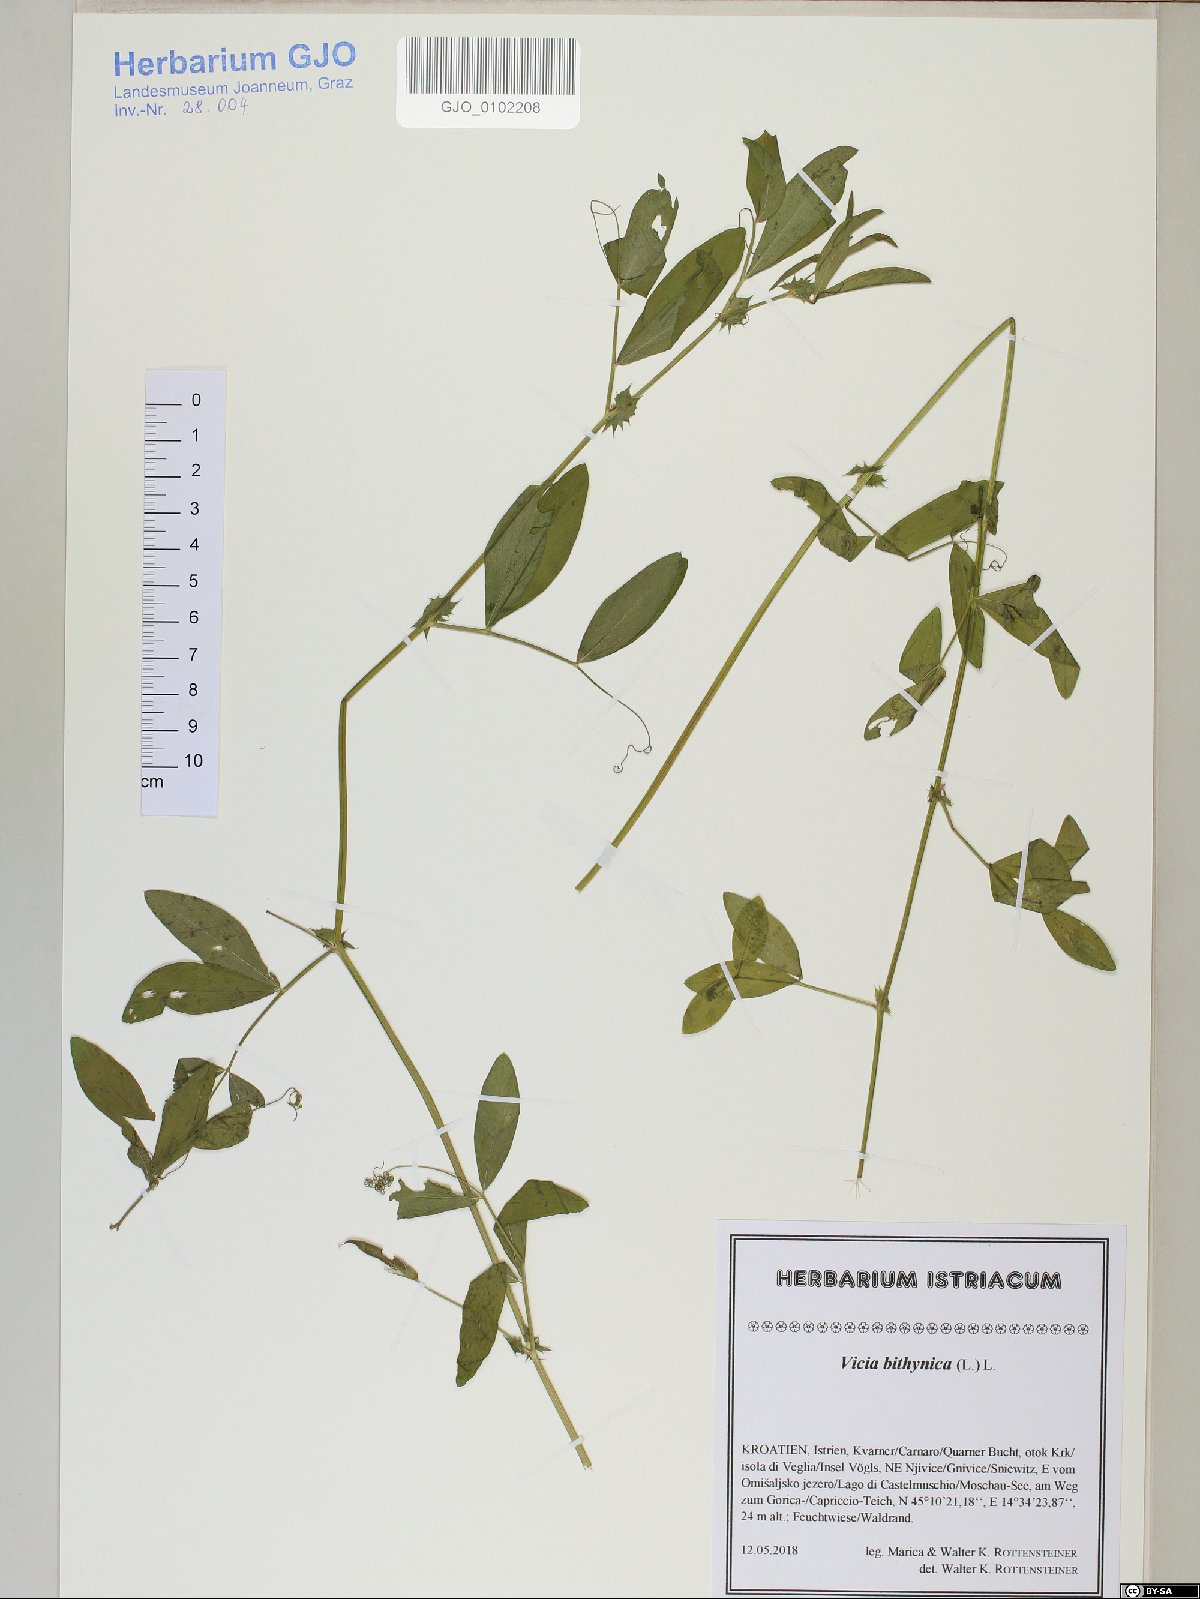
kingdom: Plantae
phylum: Tracheophyta
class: Magnoliopsida
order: Fabales
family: Fabaceae
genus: Vicia
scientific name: Vicia bithynica
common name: Bithynian vetch
